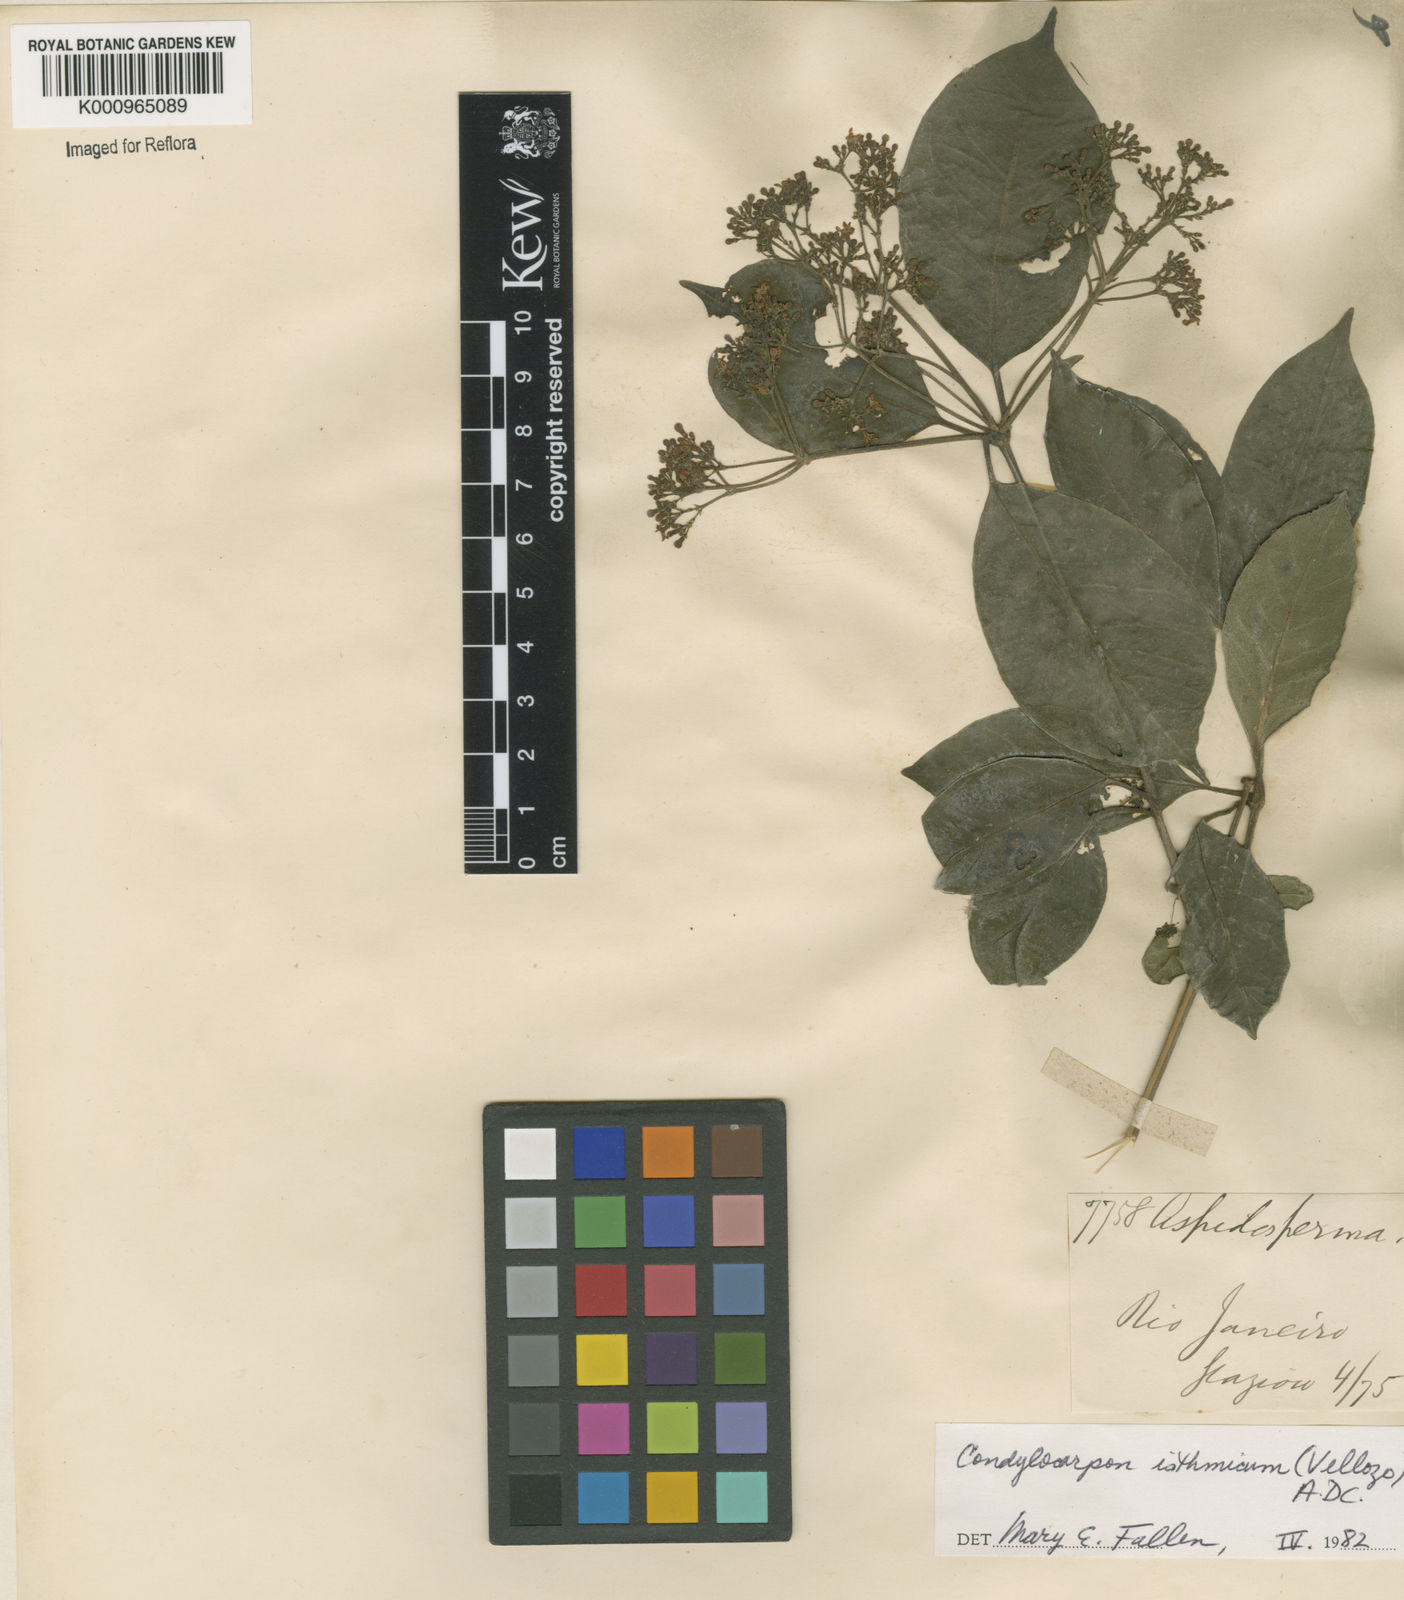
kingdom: Plantae
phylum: Tracheophyta
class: Magnoliopsida
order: Gentianales
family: Apocynaceae
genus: Condylocarpon
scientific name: Condylocarpon isthmicum
